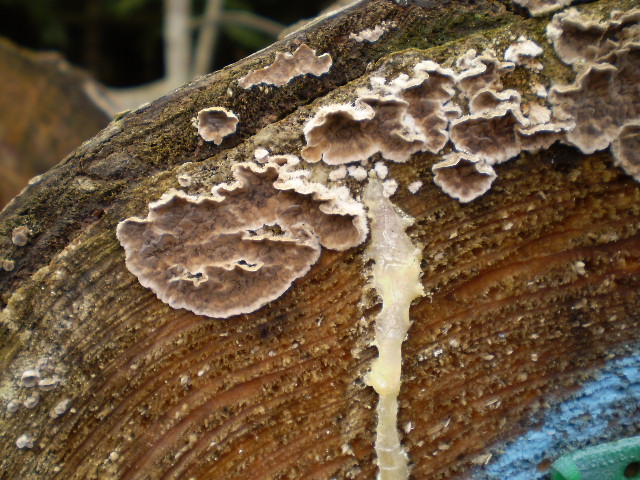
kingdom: Fungi
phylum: Basidiomycota
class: Agaricomycetes
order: Agaricales
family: Cyphellaceae
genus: Chondrostereum
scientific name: Chondrostereum purpureum
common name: purpurlædersvamp
